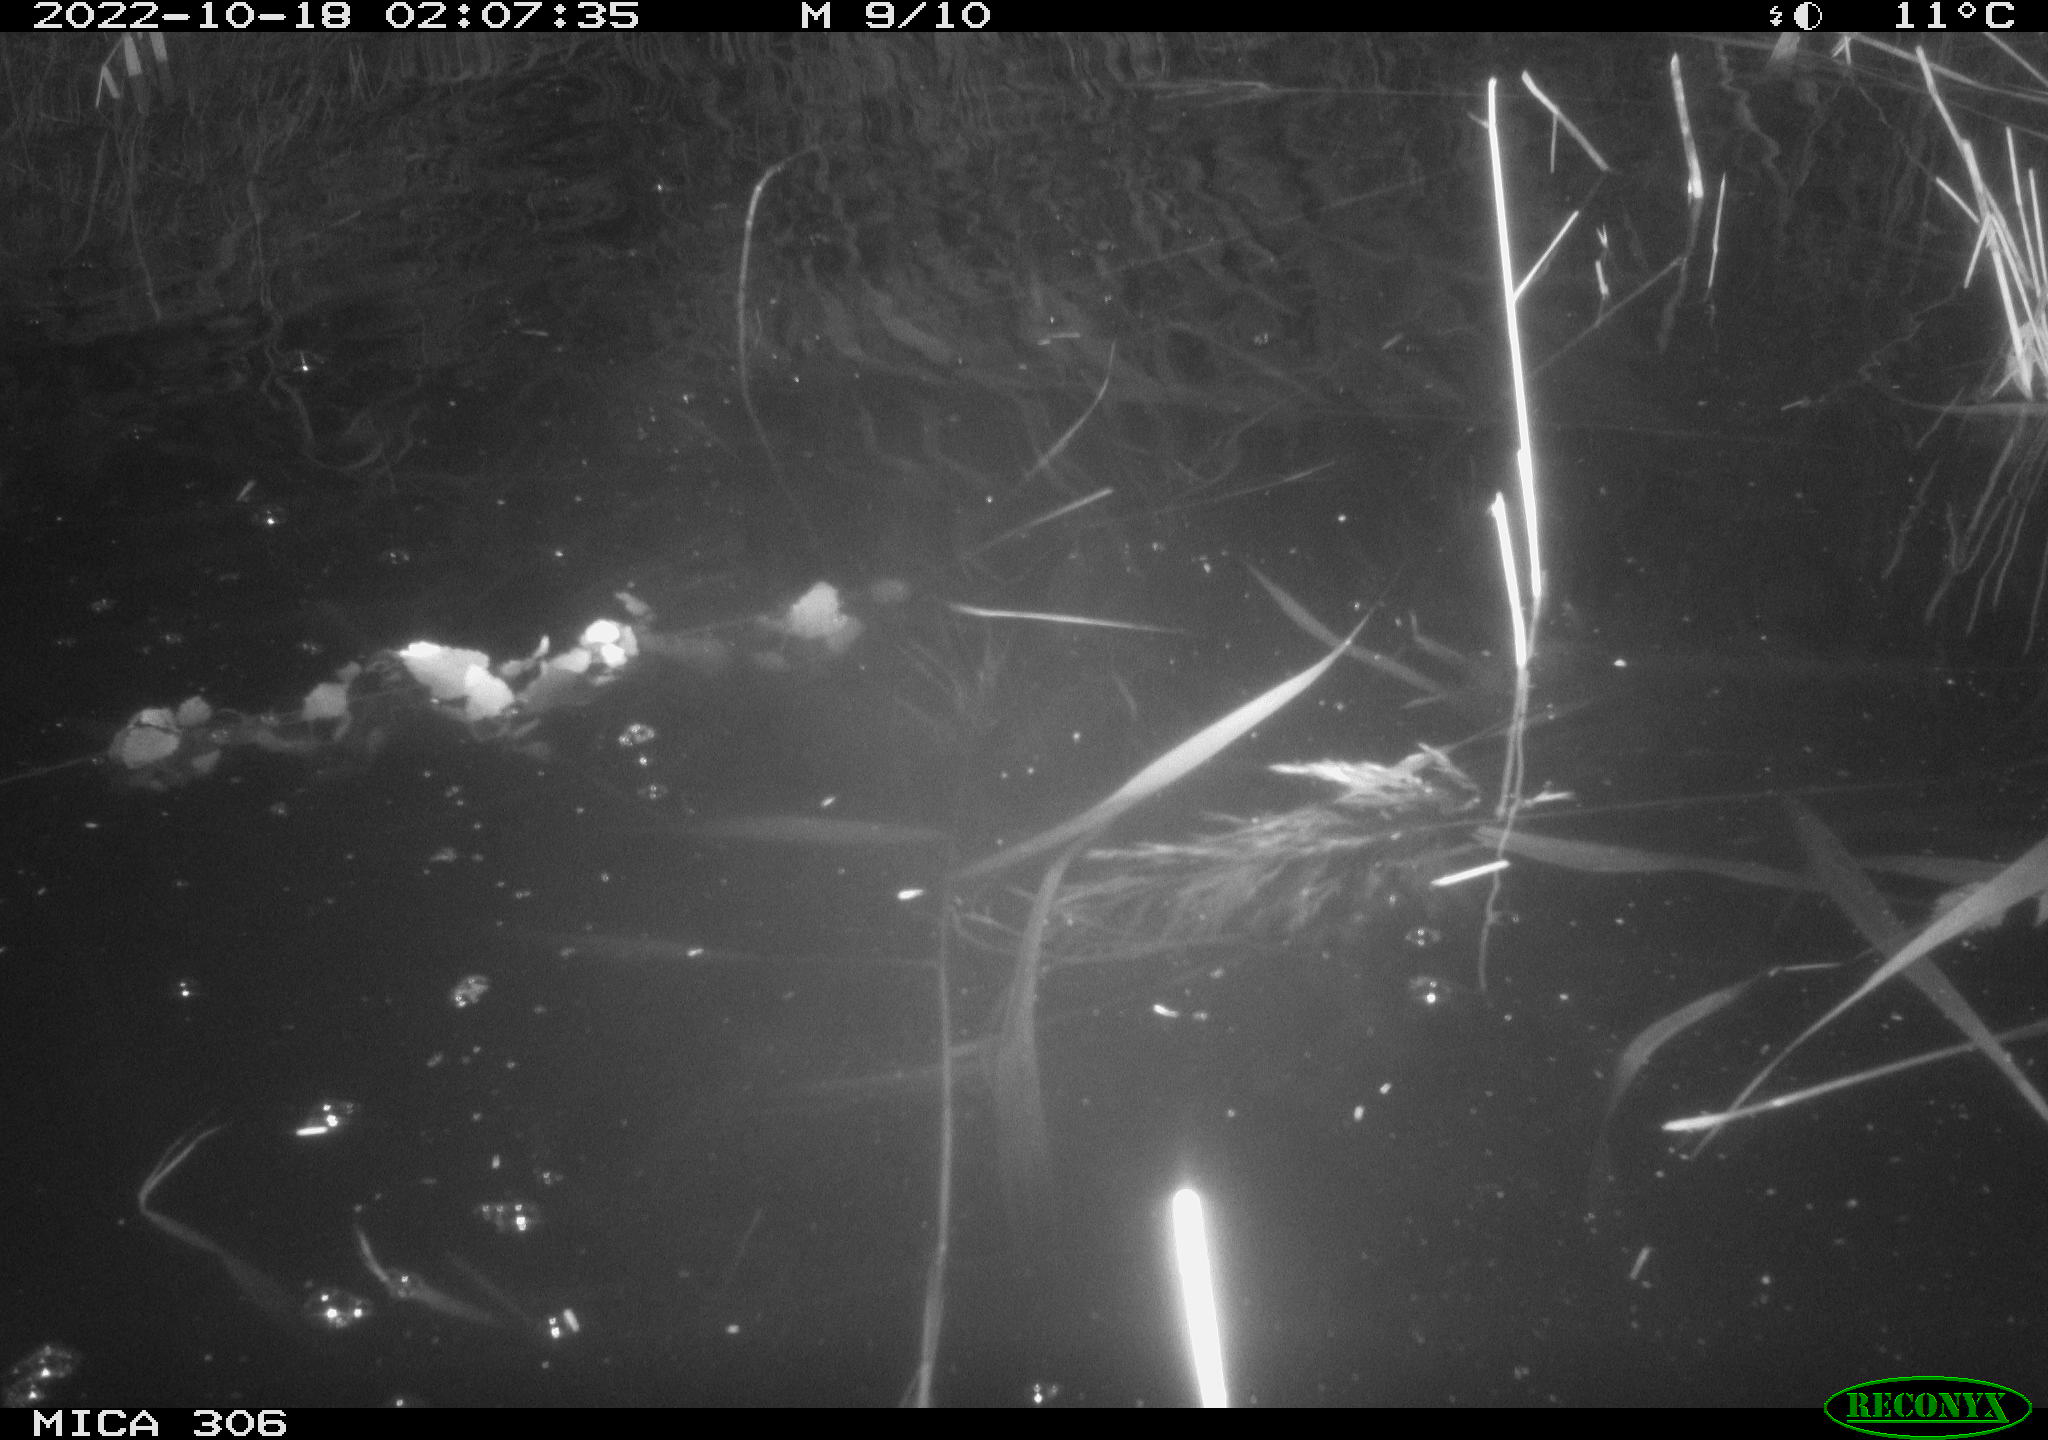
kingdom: Animalia
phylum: Chordata
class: Mammalia
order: Rodentia
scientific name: Rodentia
